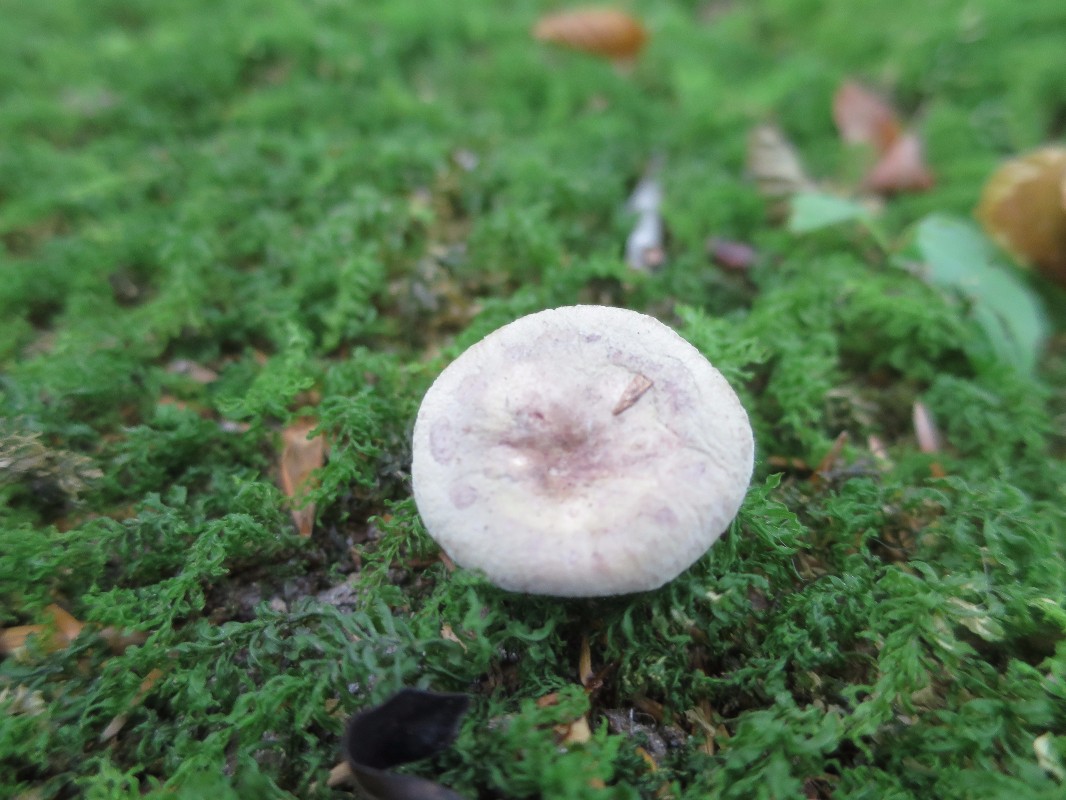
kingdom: Fungi
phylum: Basidiomycota
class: Agaricomycetes
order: Russulales
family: Russulaceae
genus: Lactarius
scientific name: Lactarius blennius
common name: dråbeplettet mælkehat
